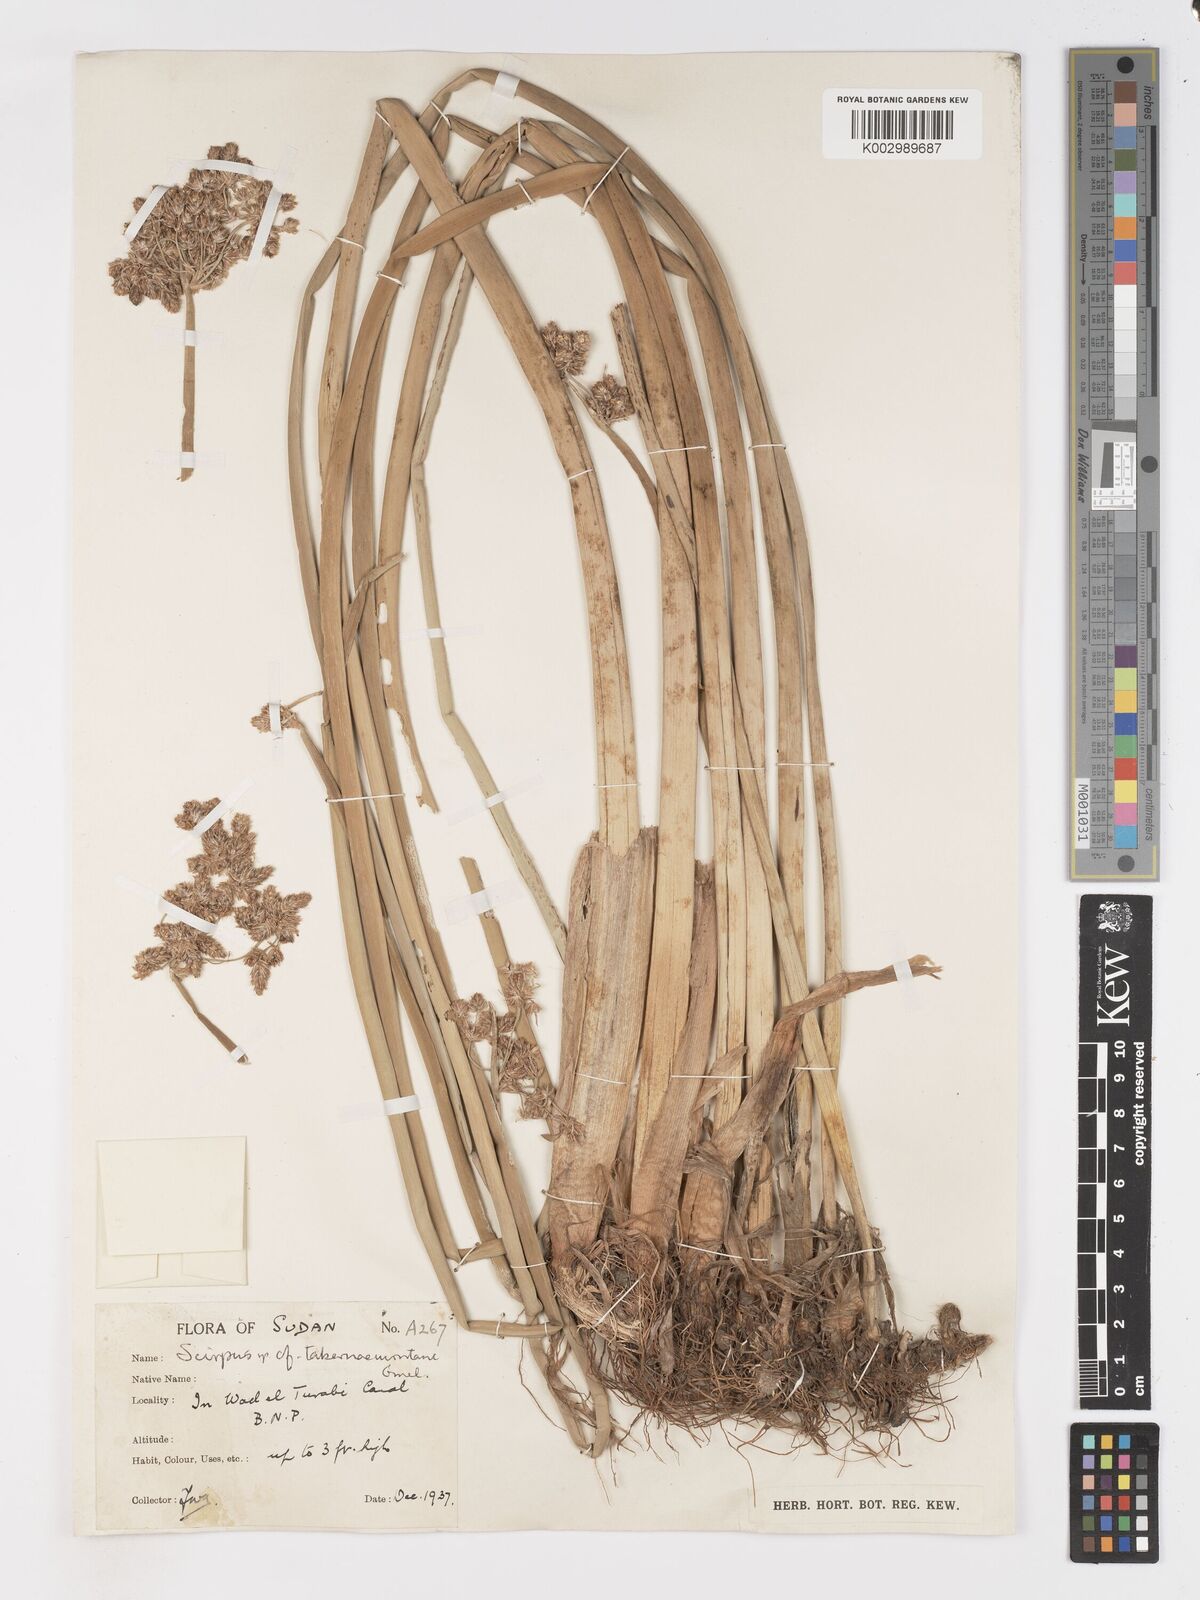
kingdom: Plantae
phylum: Tracheophyta
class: Liliopsida
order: Poales
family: Cyperaceae
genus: Schoenoplectus
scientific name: Schoenoplectus tabernaemontani
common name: Grey club-rush
